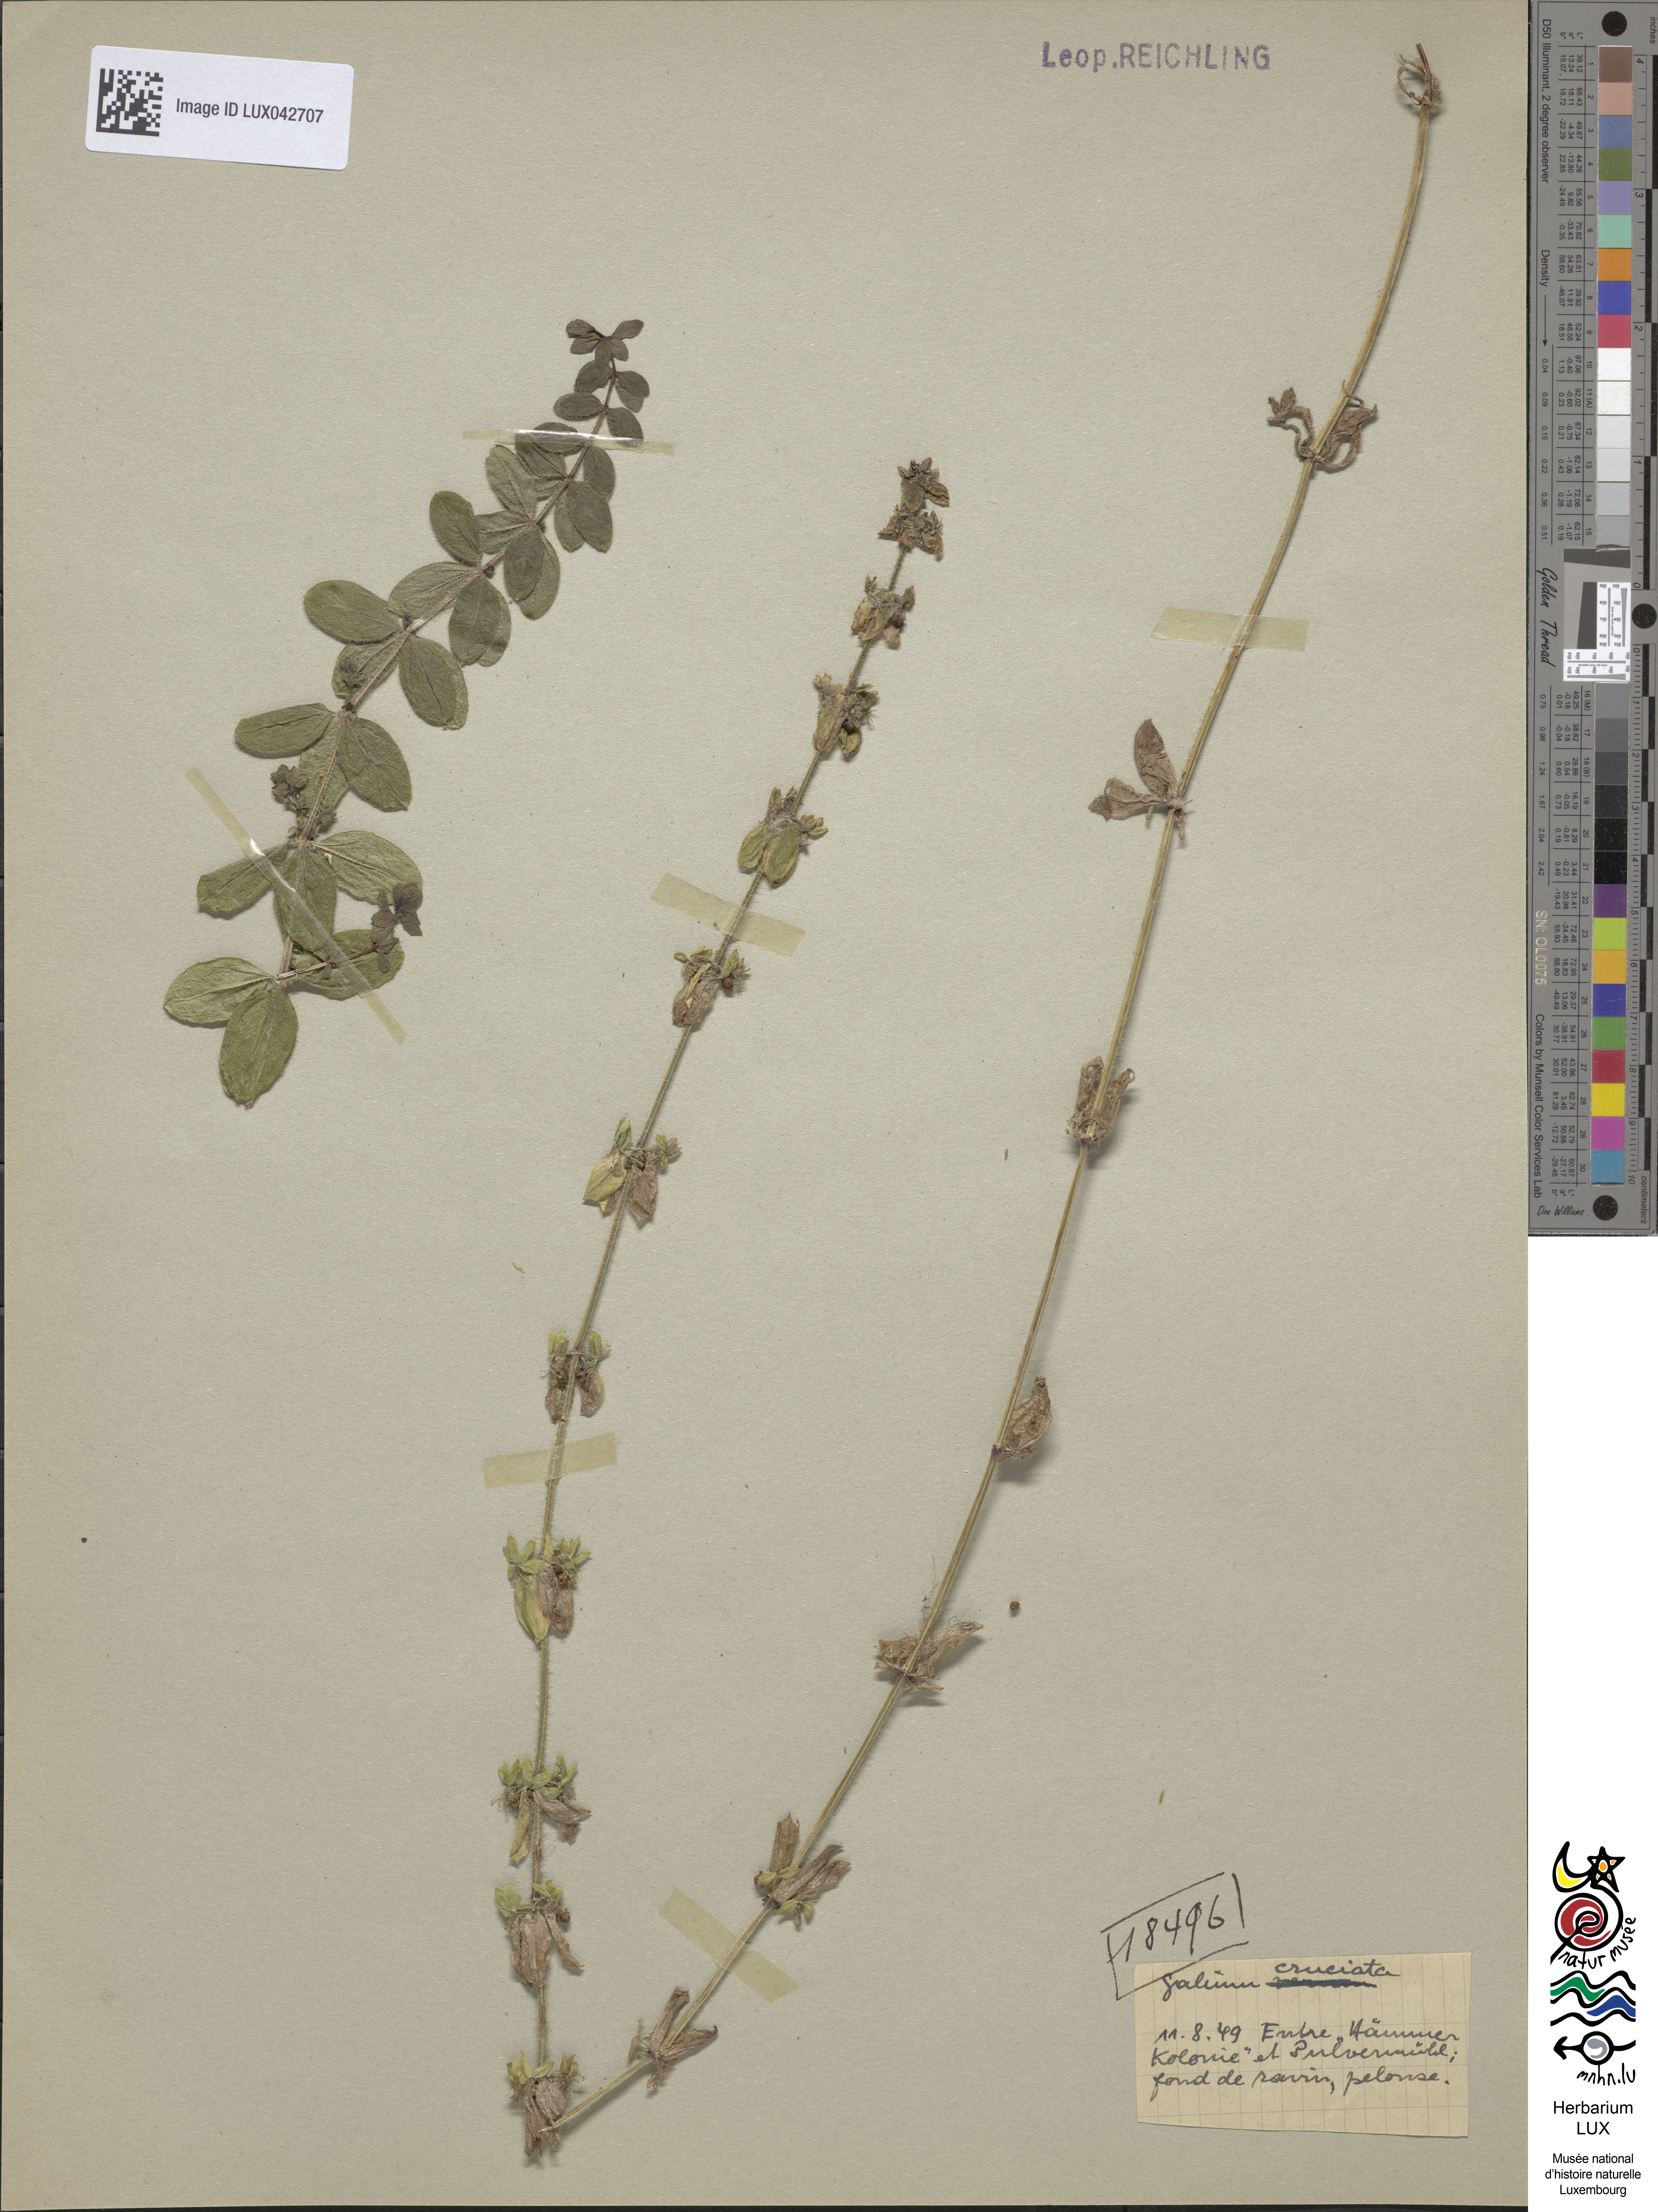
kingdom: Plantae
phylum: Tracheophyta
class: Magnoliopsida
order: Gentianales
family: Rubiaceae
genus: Cruciata
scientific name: Cruciata laevipes
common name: Crosswort
